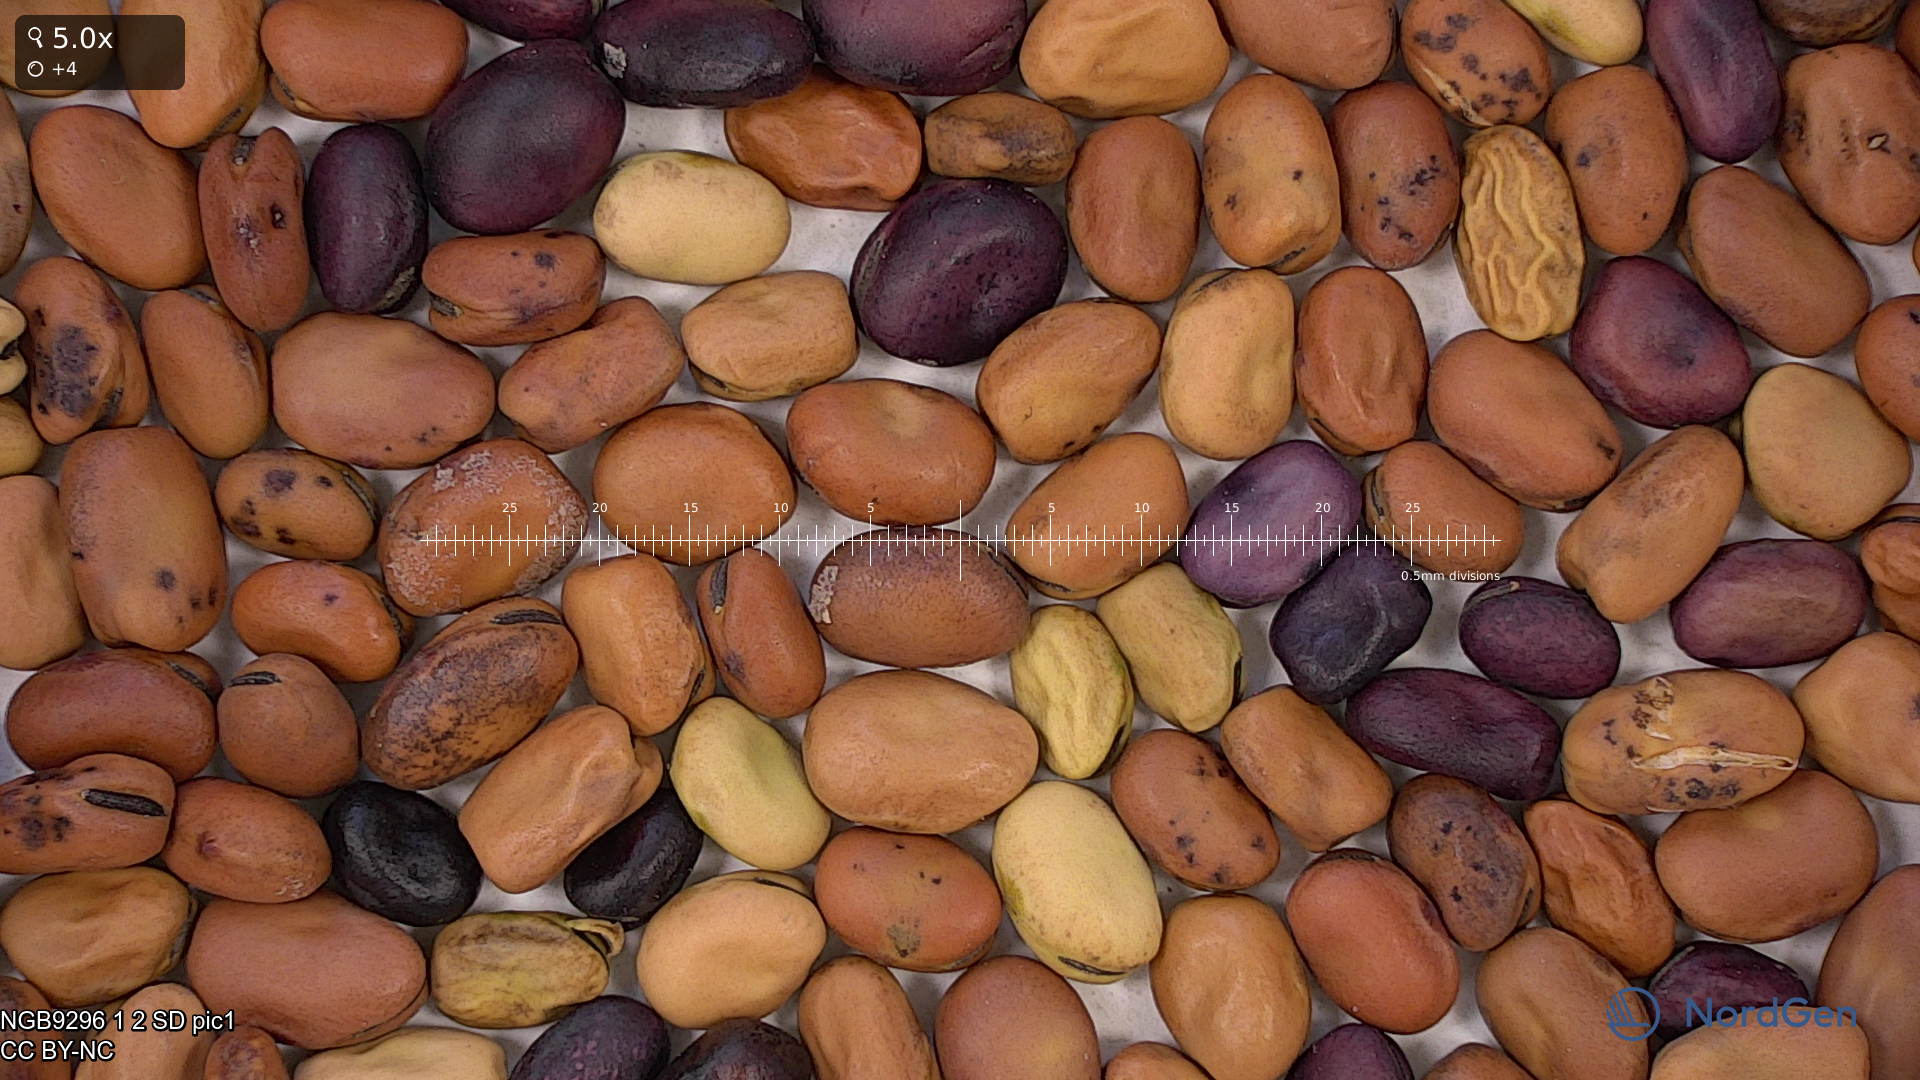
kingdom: Plantae
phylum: Tracheophyta
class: Magnoliopsida
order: Fabales
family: Fabaceae
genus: Vicia
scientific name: Vicia faba
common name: Broad bean
